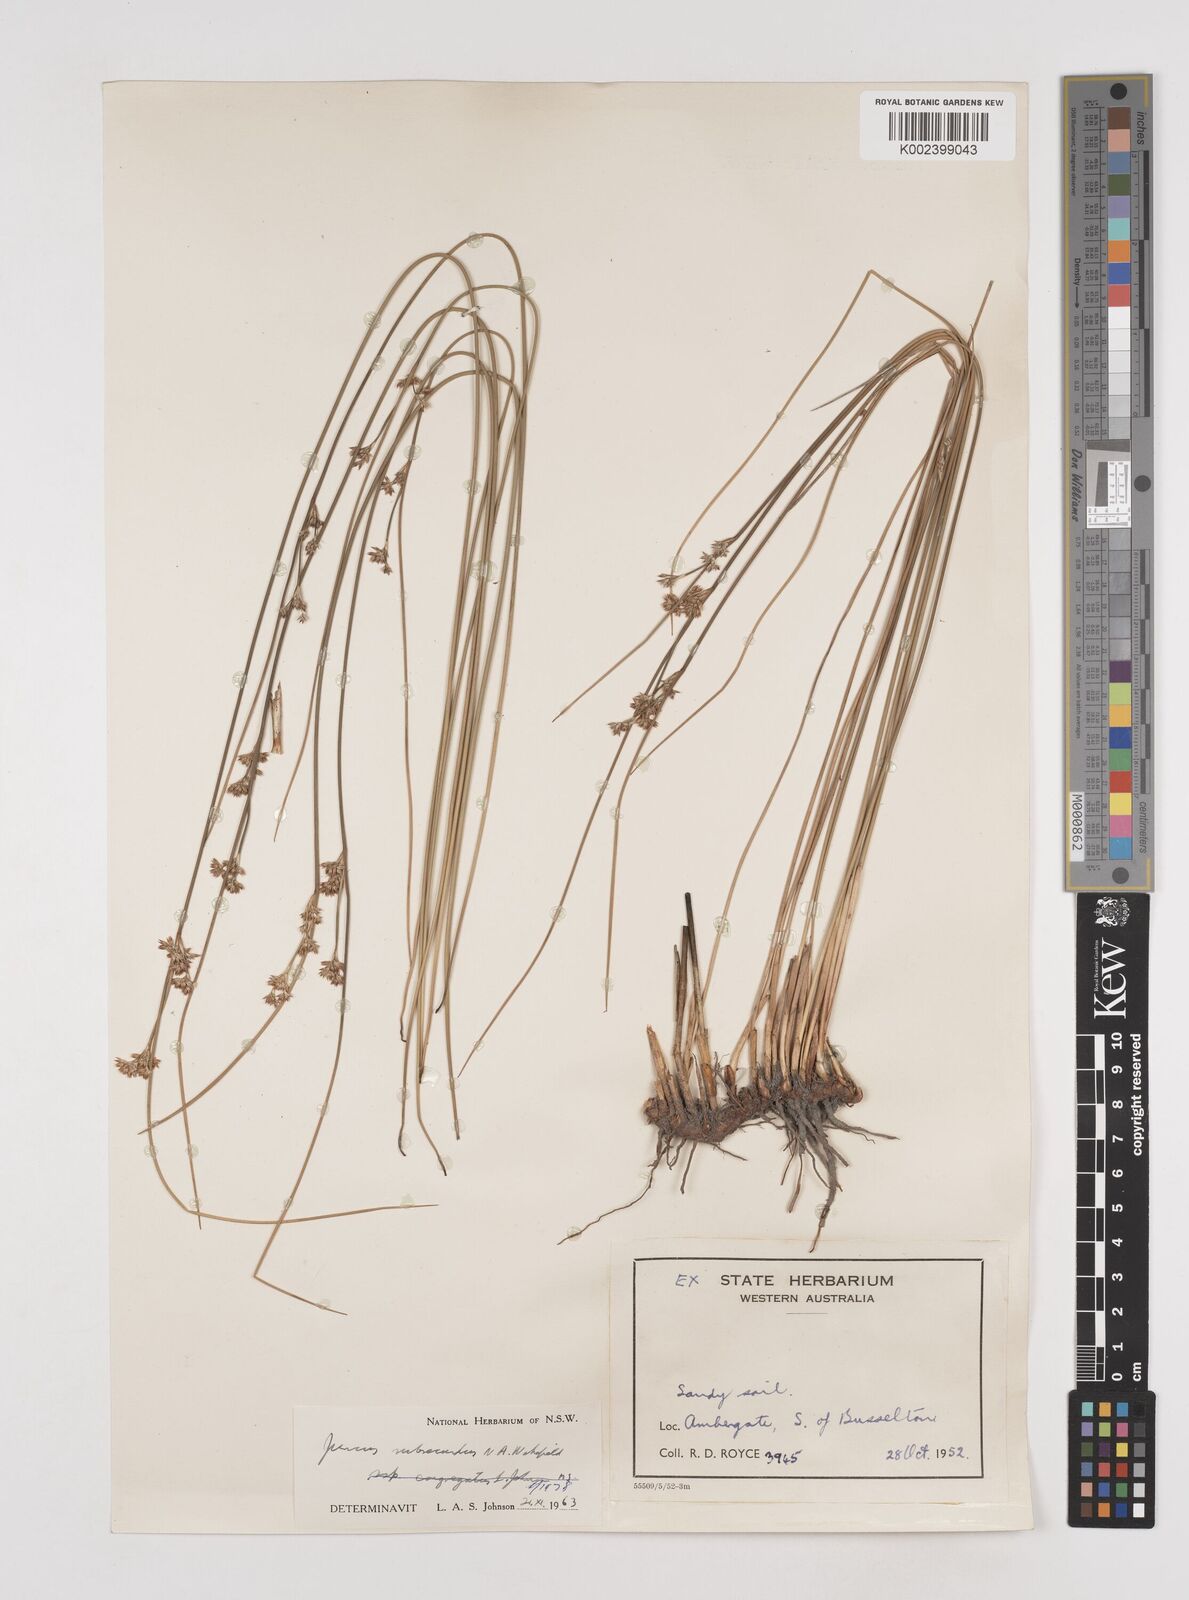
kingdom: Plantae
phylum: Tracheophyta
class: Liliopsida
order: Poales
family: Juncaceae
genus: Juncus
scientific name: Juncus subsecundus
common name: Fingered rush
